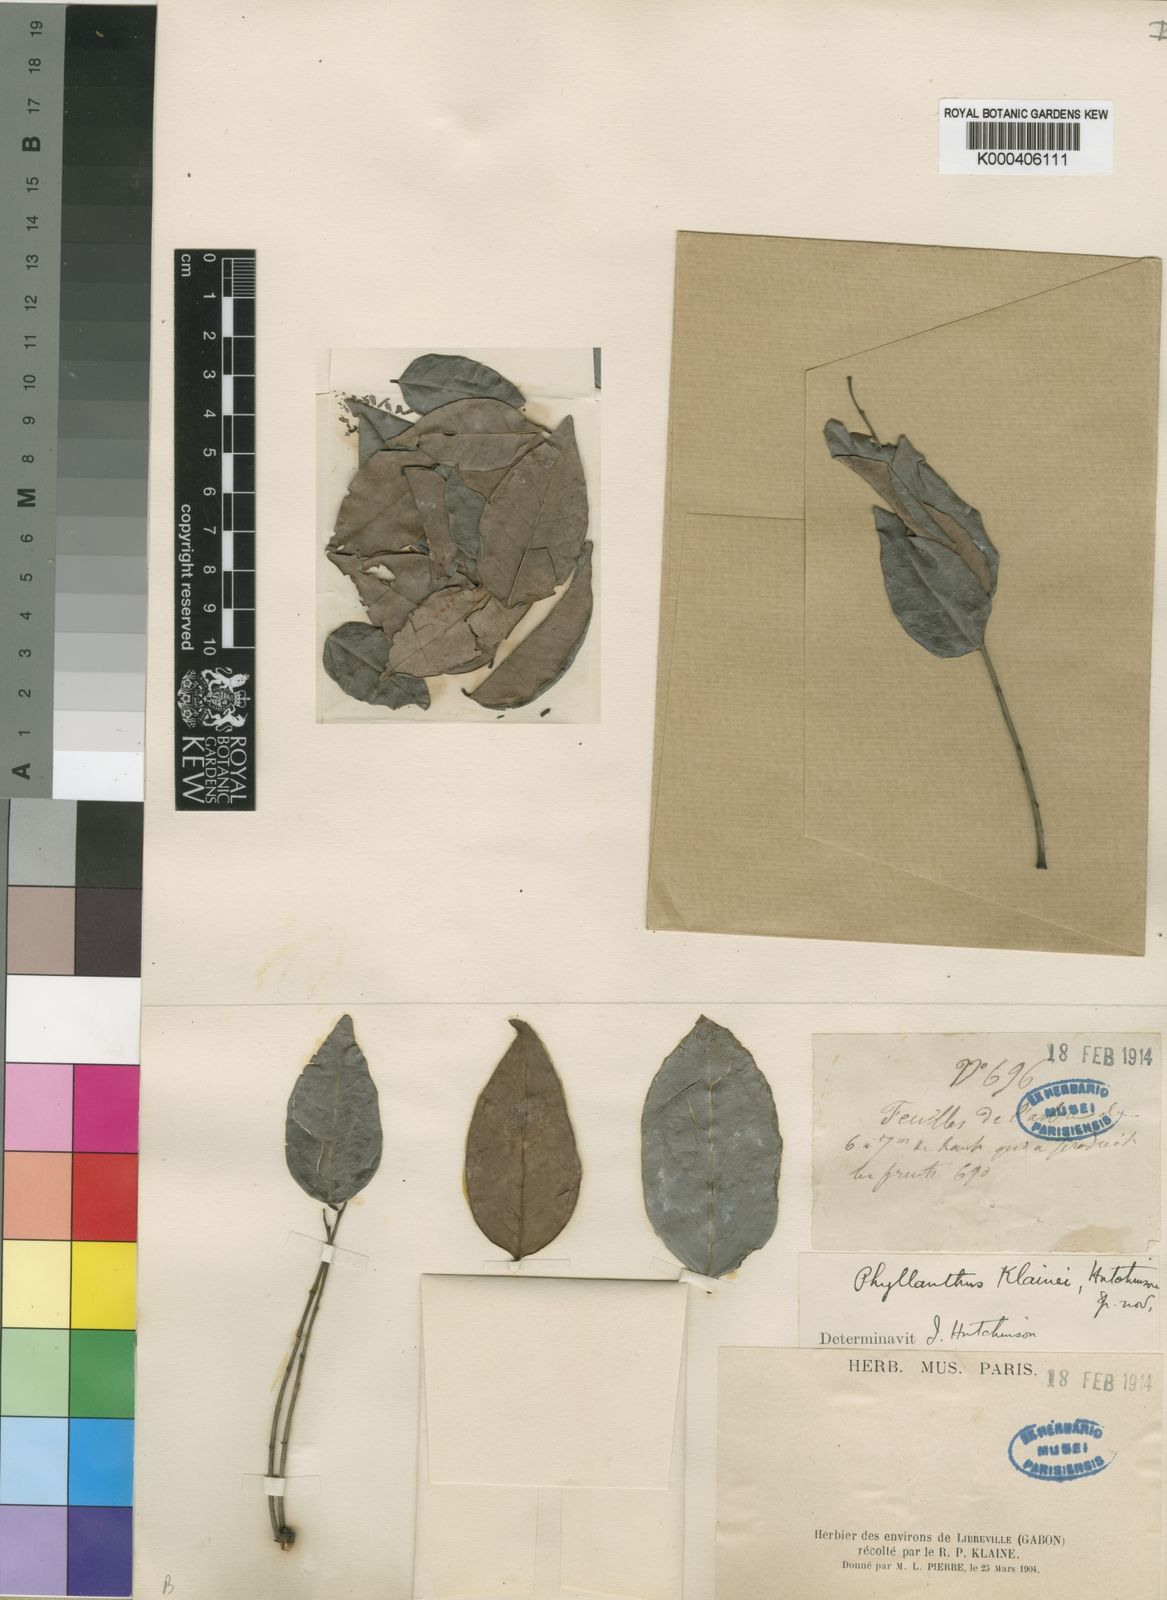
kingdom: Plantae
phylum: Tracheophyta
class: Magnoliopsida
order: Malpighiales
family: Phyllanthaceae
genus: Phyllanthus
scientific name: Phyllanthus
